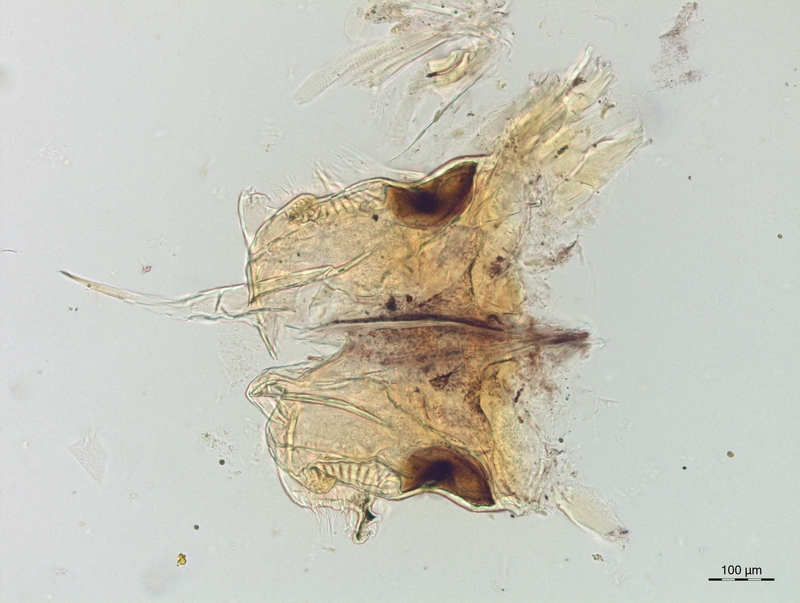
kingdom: Animalia
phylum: Arthropoda
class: Diplopoda
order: Chordeumatida
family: Craspedosomatidae
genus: Craspedosoma
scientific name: Craspedosoma rawlinsii
